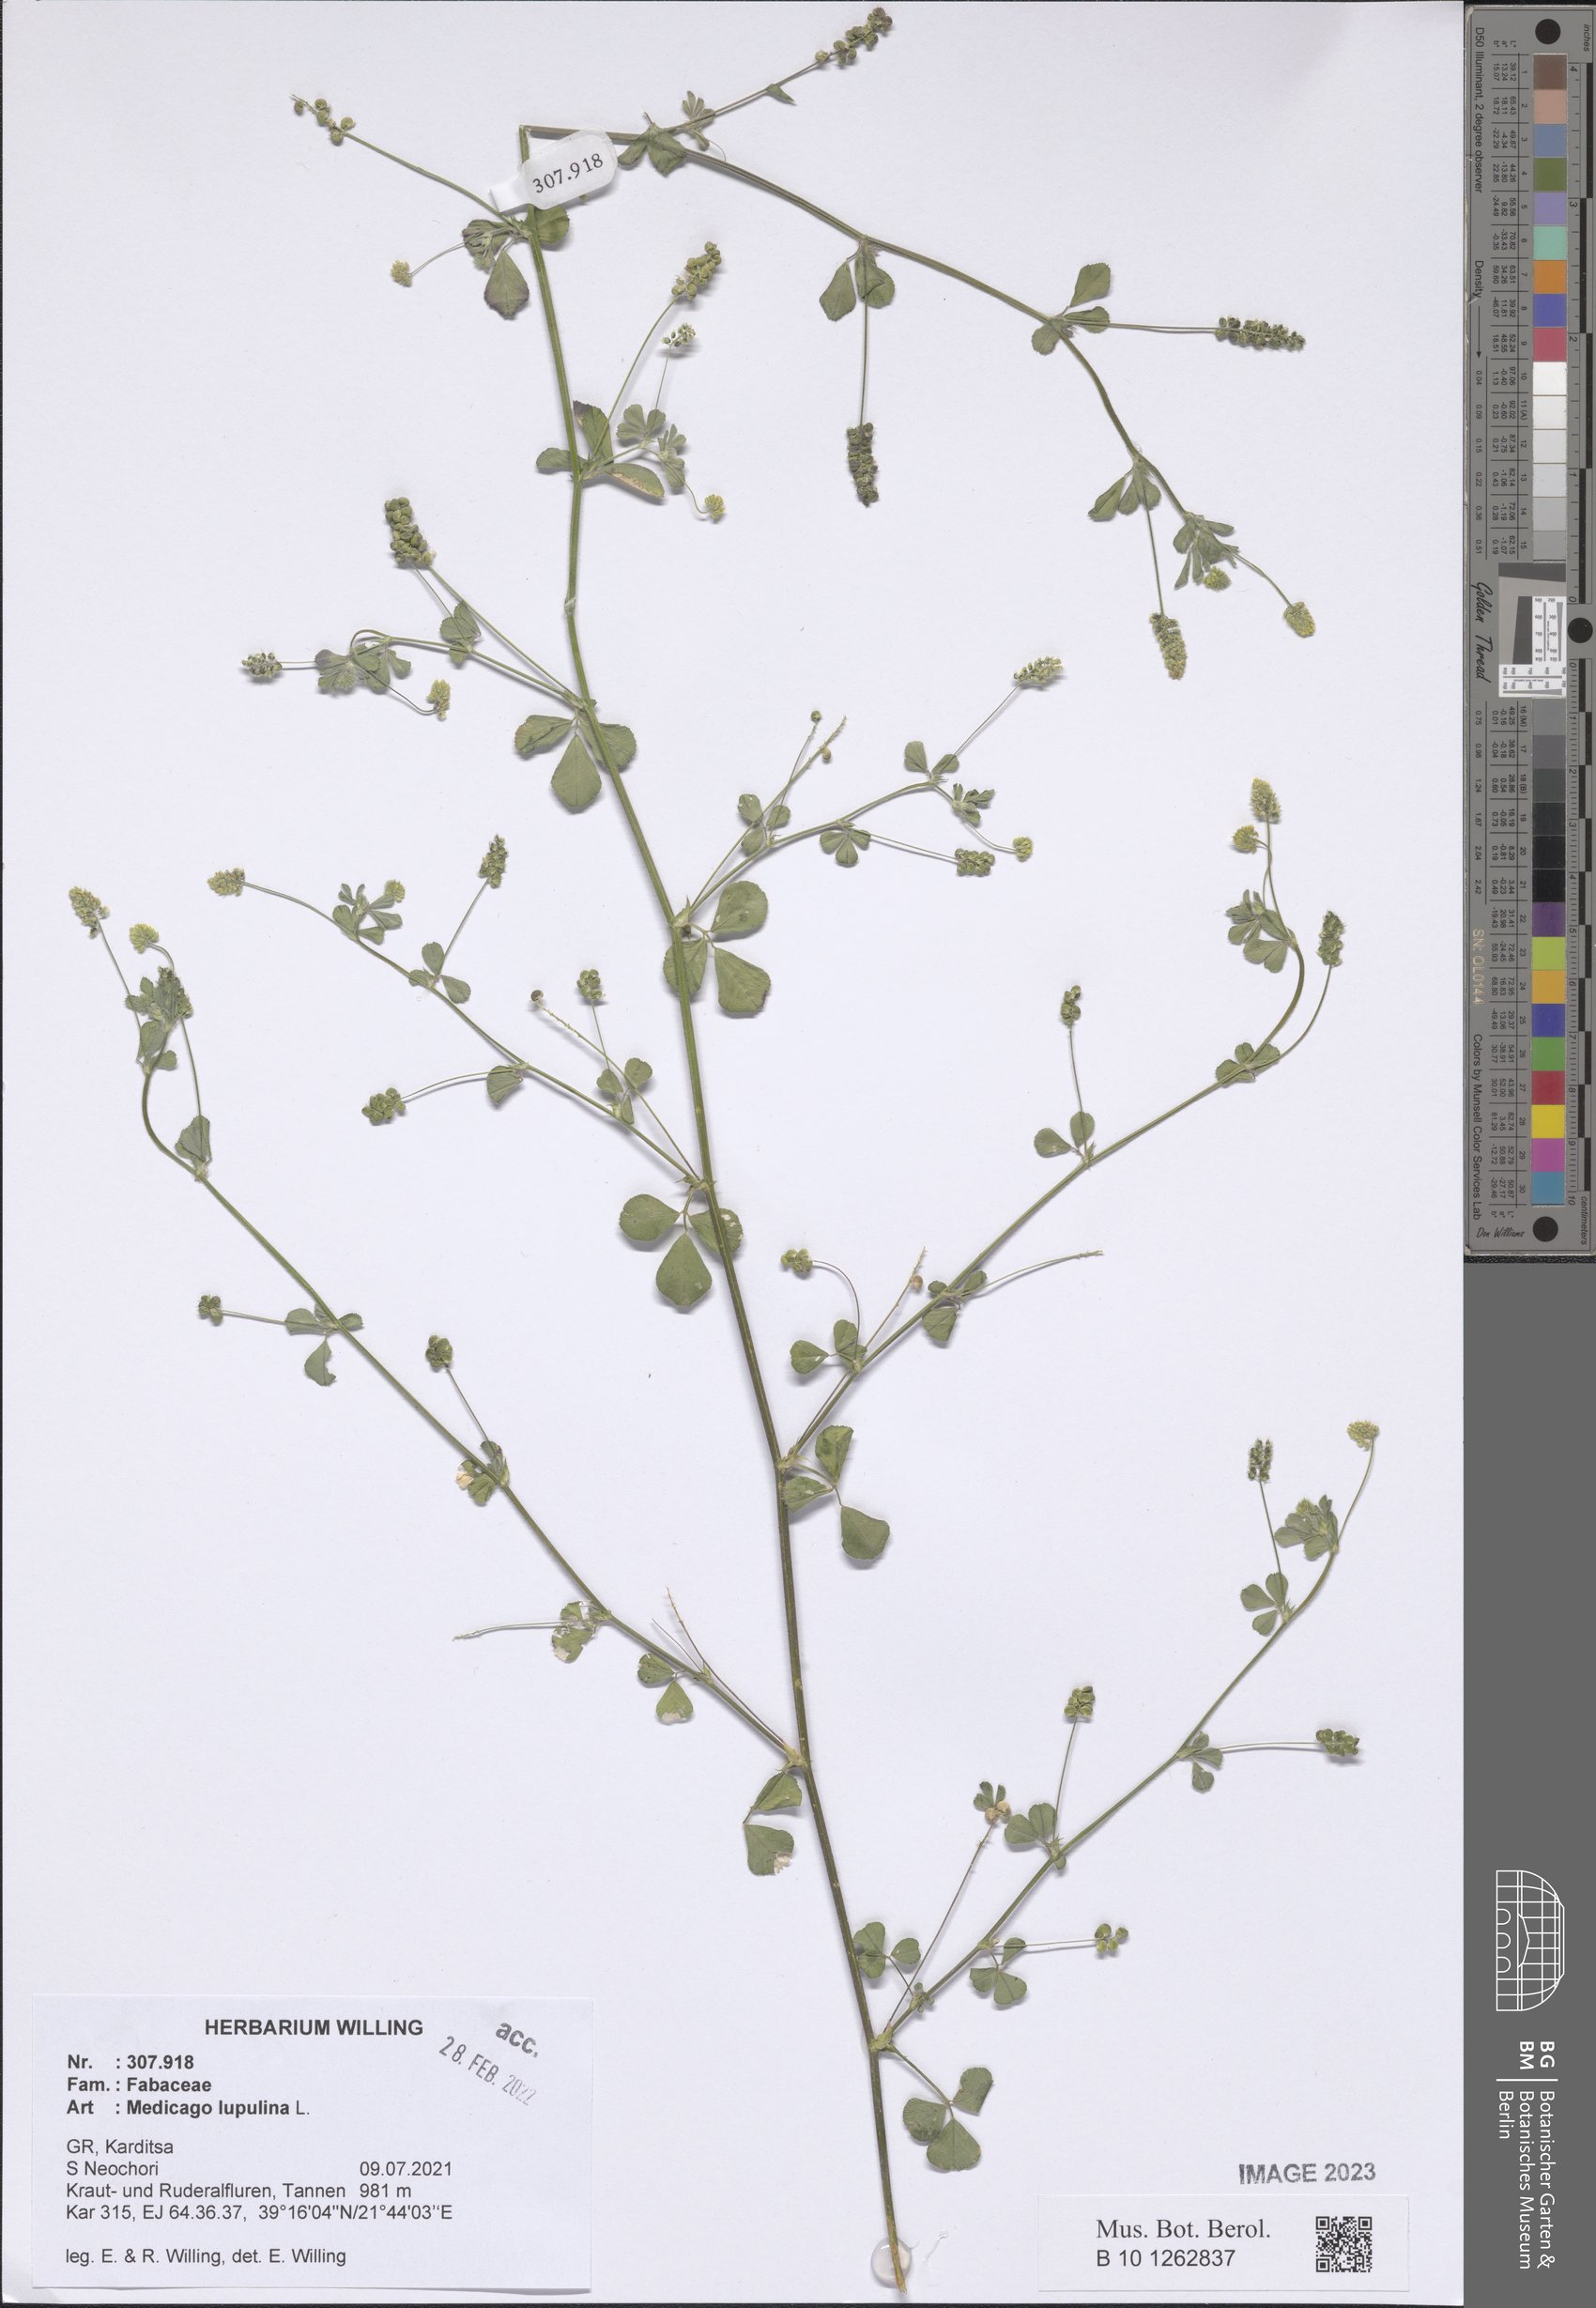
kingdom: Plantae
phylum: Tracheophyta
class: Magnoliopsida
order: Fabales
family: Fabaceae
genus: Medicago
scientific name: Medicago lupulina
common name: Black medick
